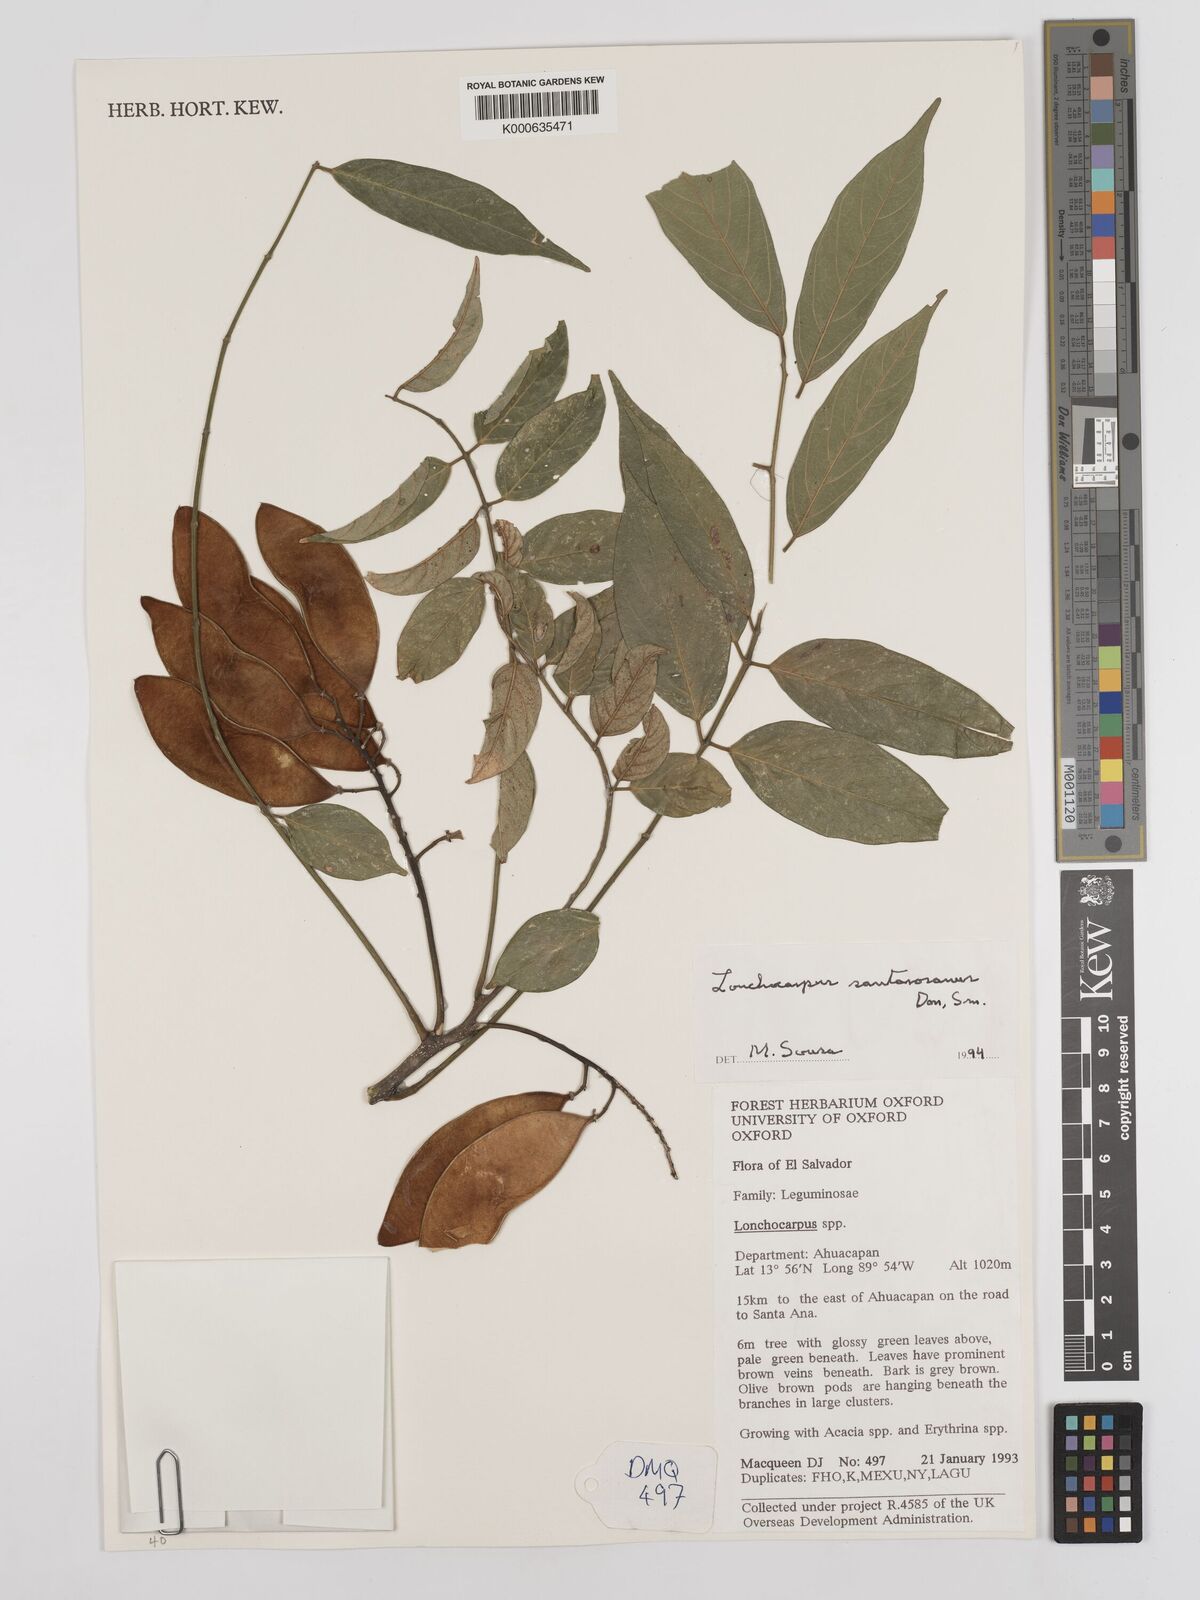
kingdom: Plantae
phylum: Tracheophyta
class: Magnoliopsida
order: Fabales
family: Fabaceae
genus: Lonchocarpus
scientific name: Lonchocarpus santarosanus
